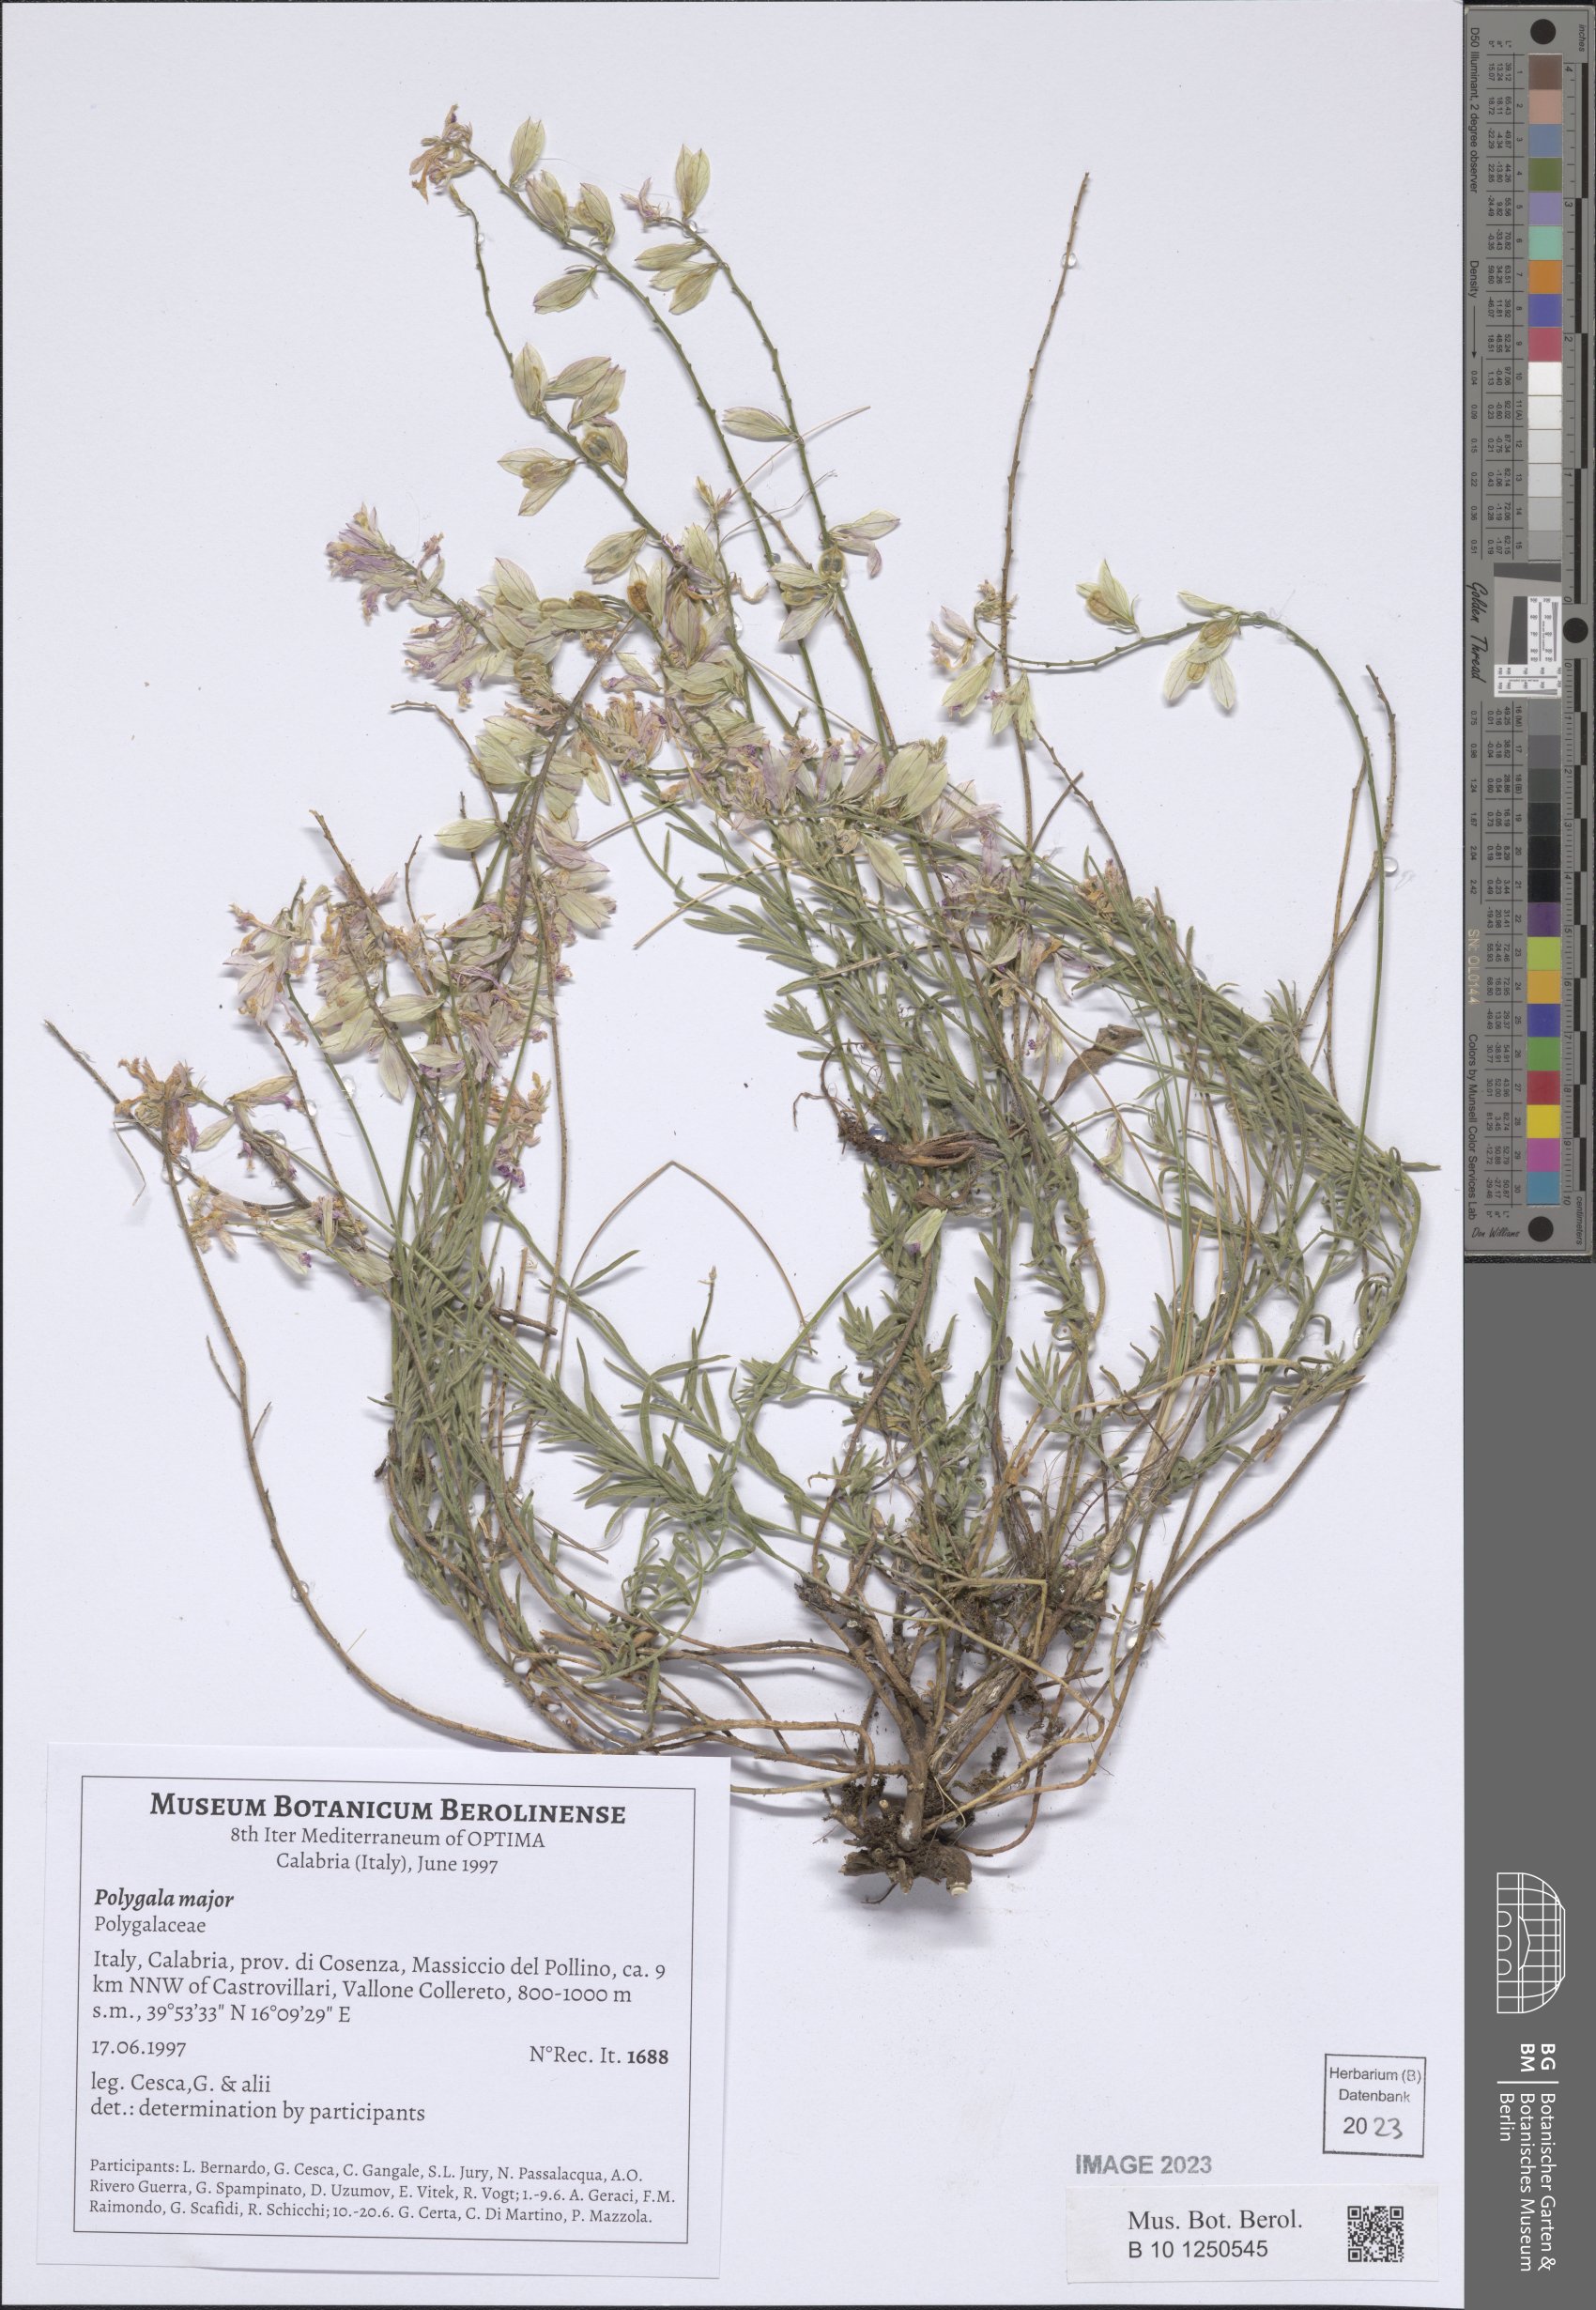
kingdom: Plantae
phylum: Tracheophyta
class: Magnoliopsida
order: Fabales
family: Polygalaceae
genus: Polygala
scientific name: Polygala major
